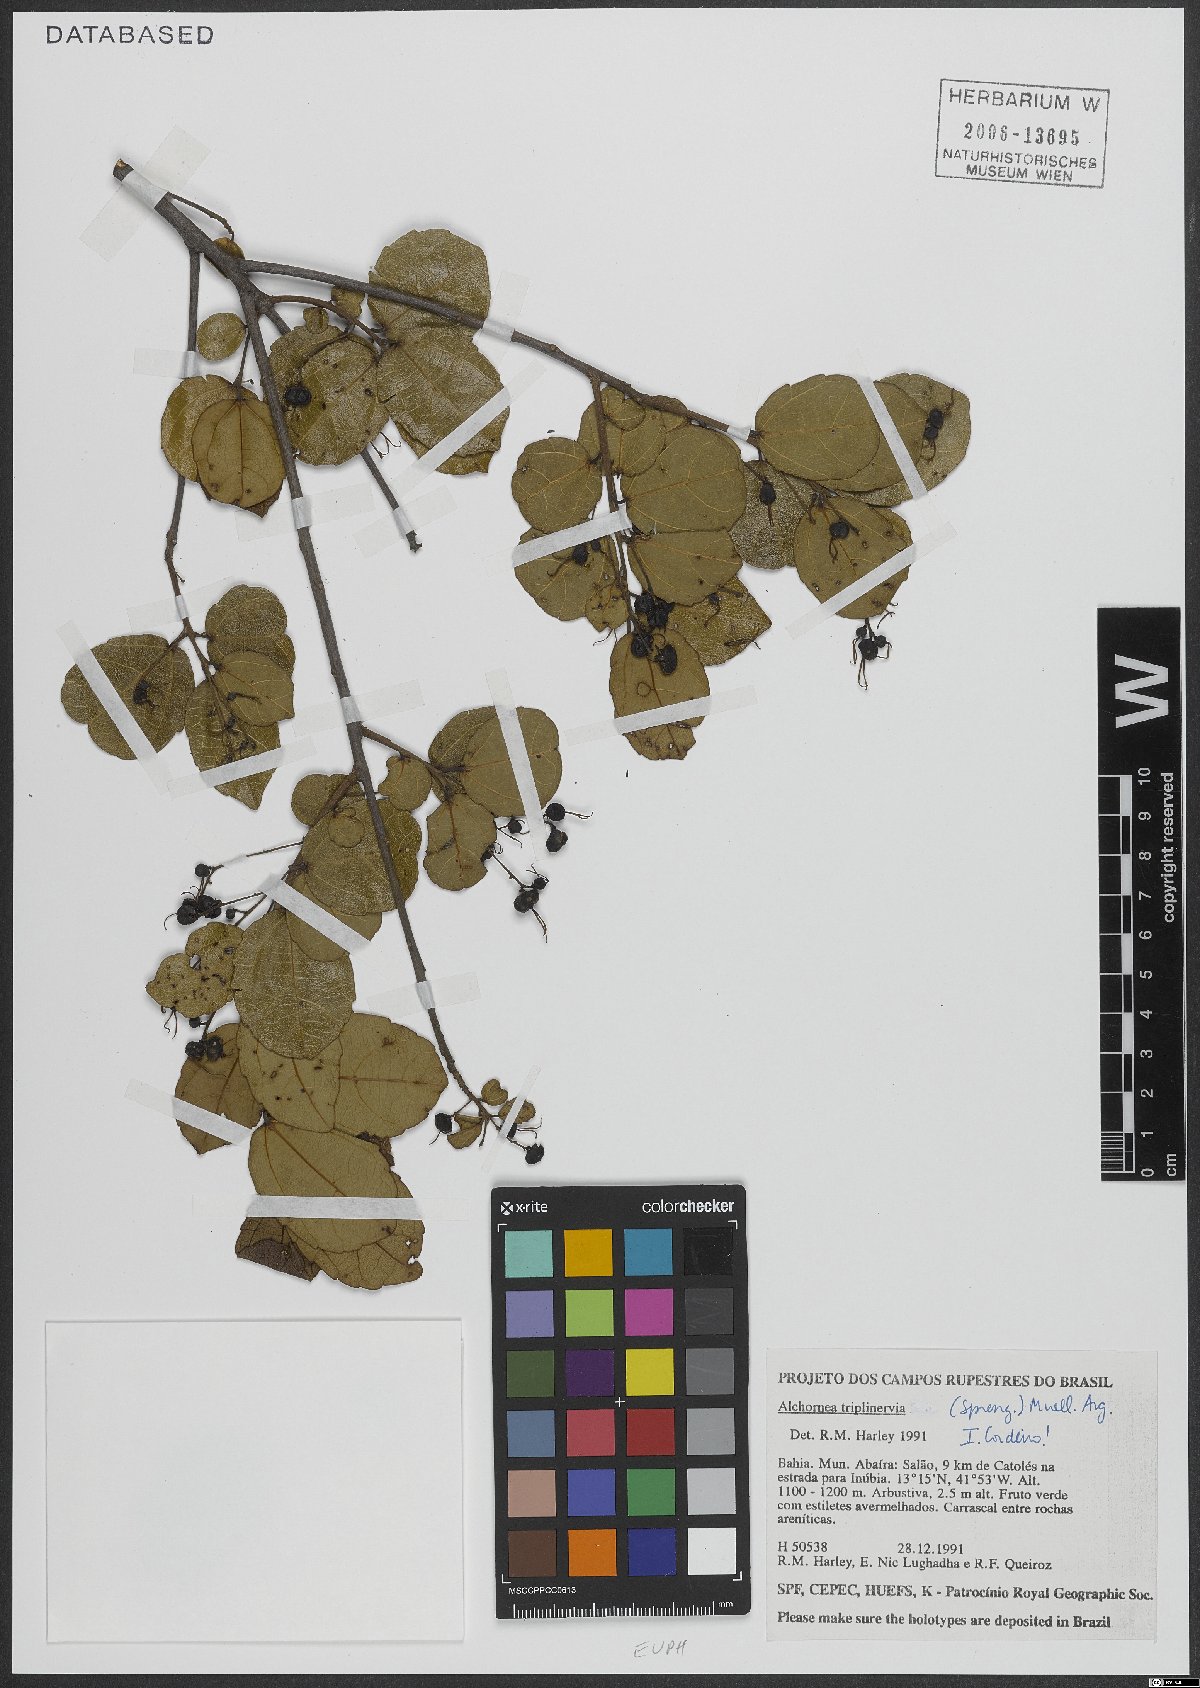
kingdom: Plantae
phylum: Tracheophyta
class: Magnoliopsida
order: Malpighiales
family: Euphorbiaceae
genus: Alchornea
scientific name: Alchornea triplinervia
